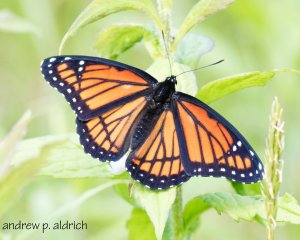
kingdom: Animalia
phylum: Arthropoda
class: Insecta
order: Lepidoptera
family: Nymphalidae
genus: Limenitis
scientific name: Limenitis archippus
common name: Viceroy
